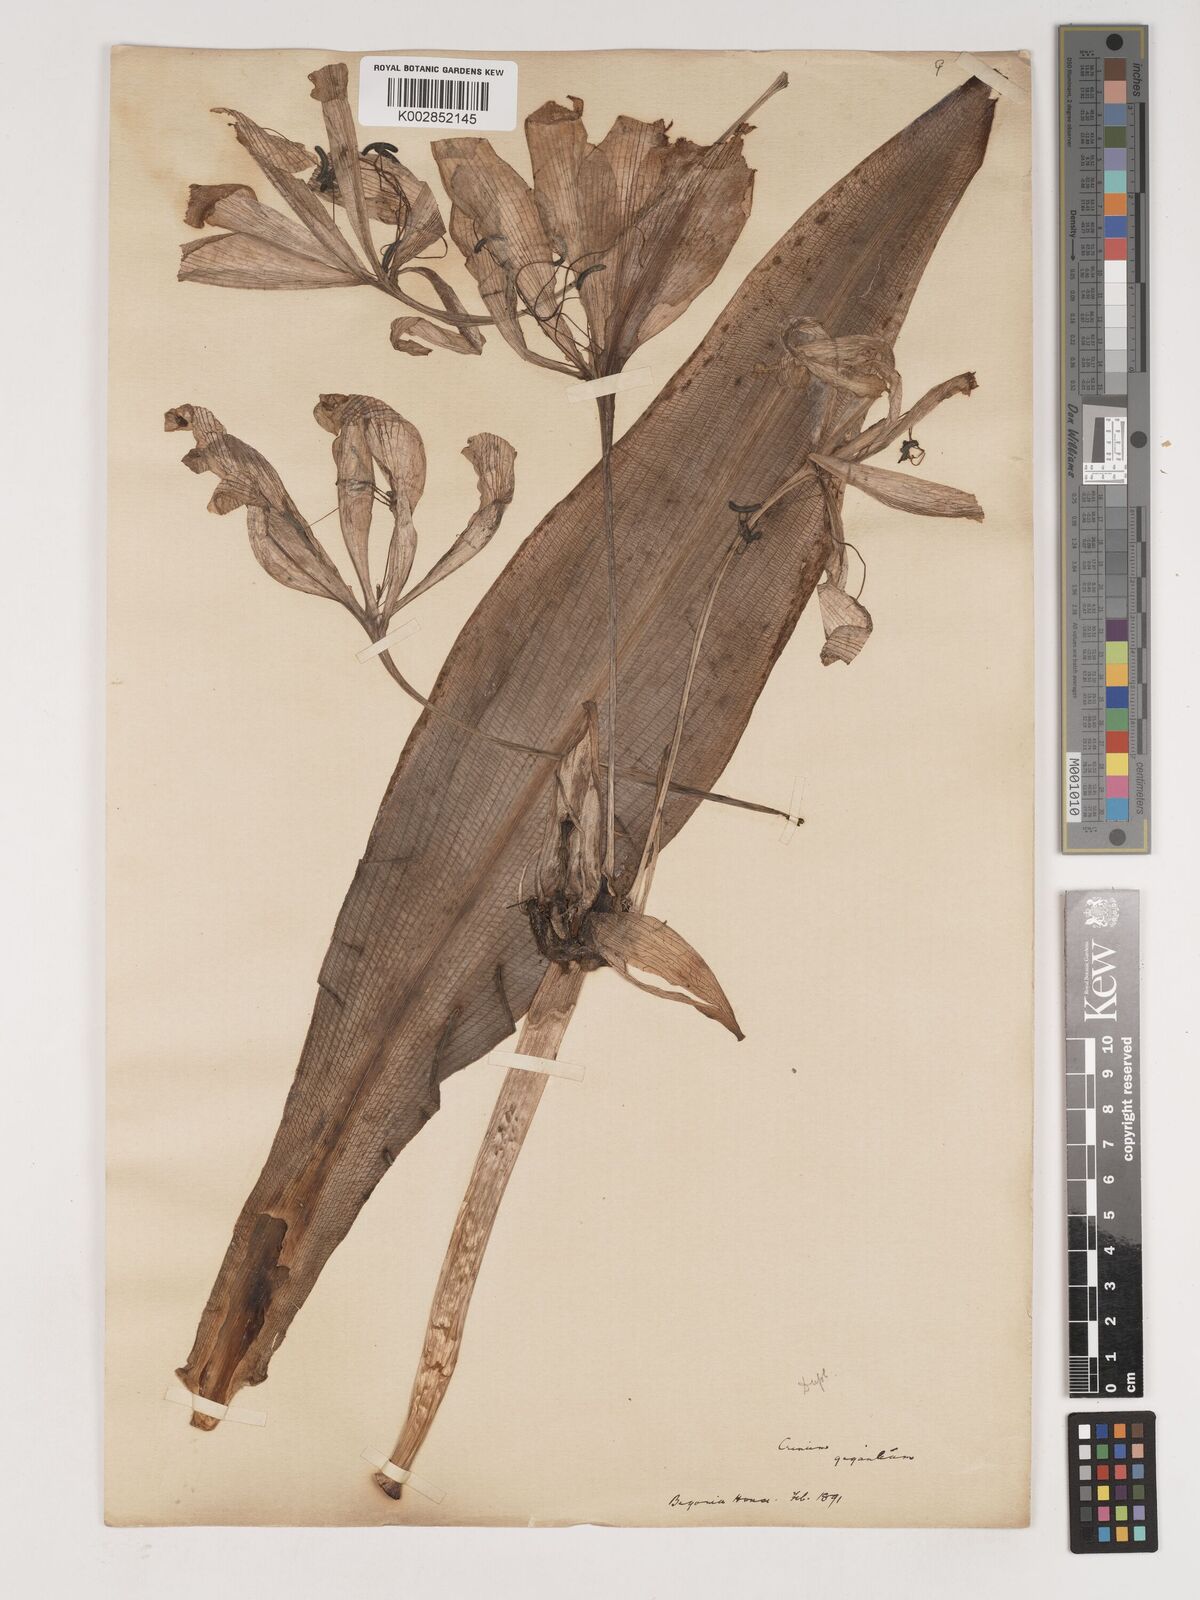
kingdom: Plantae
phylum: Tracheophyta
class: Liliopsida
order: Asparagales
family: Amaryllidaceae
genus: Crinum
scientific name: Crinum jagus
